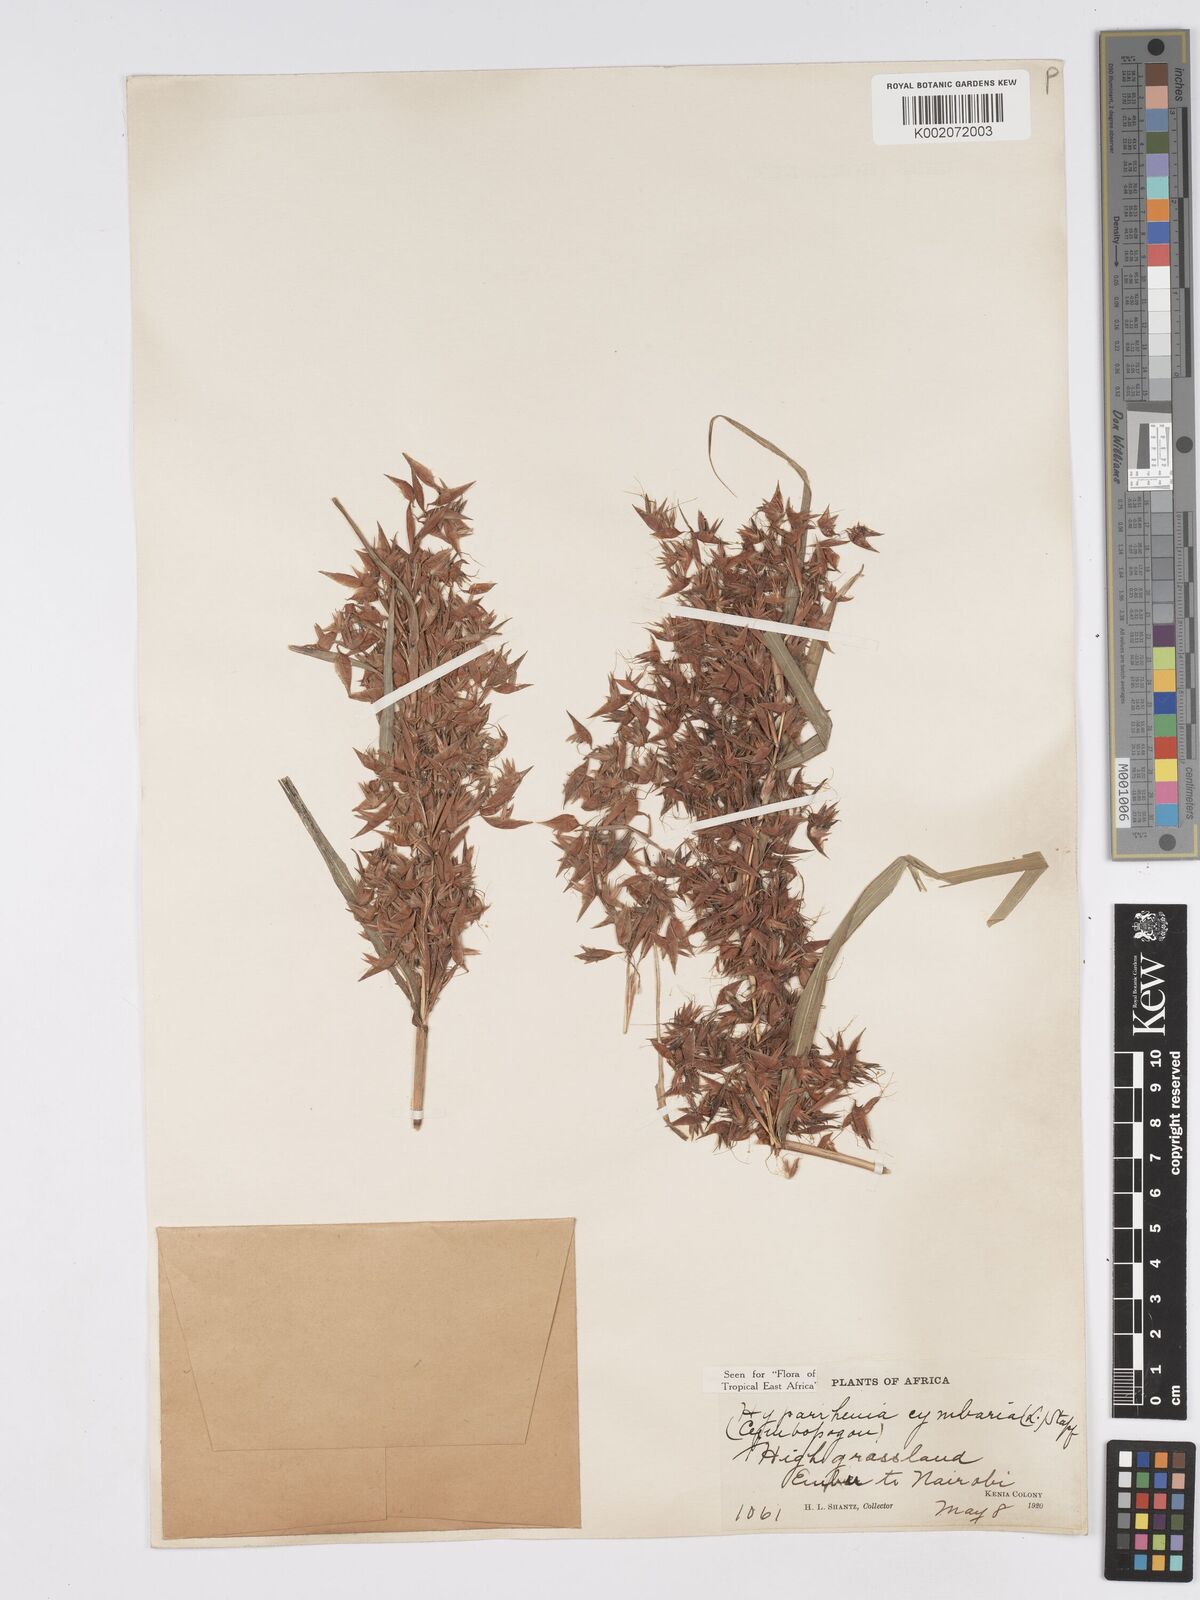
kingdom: Plantae
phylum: Tracheophyta
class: Liliopsida
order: Poales
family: Poaceae
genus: Hyparrhenia
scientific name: Hyparrhenia cymbaria
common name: Boat thatching grass
